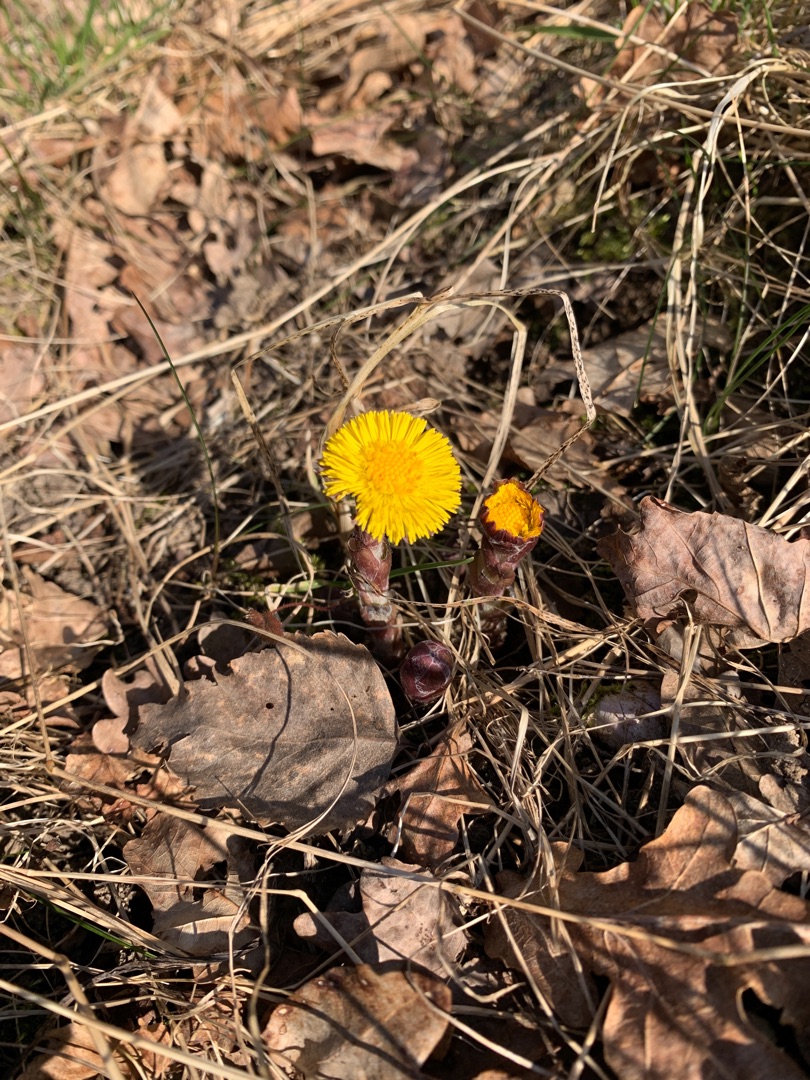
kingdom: Plantae
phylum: Tracheophyta
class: Magnoliopsida
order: Asterales
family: Asteraceae
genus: Tussilago
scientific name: Tussilago farfara
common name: Følfod
